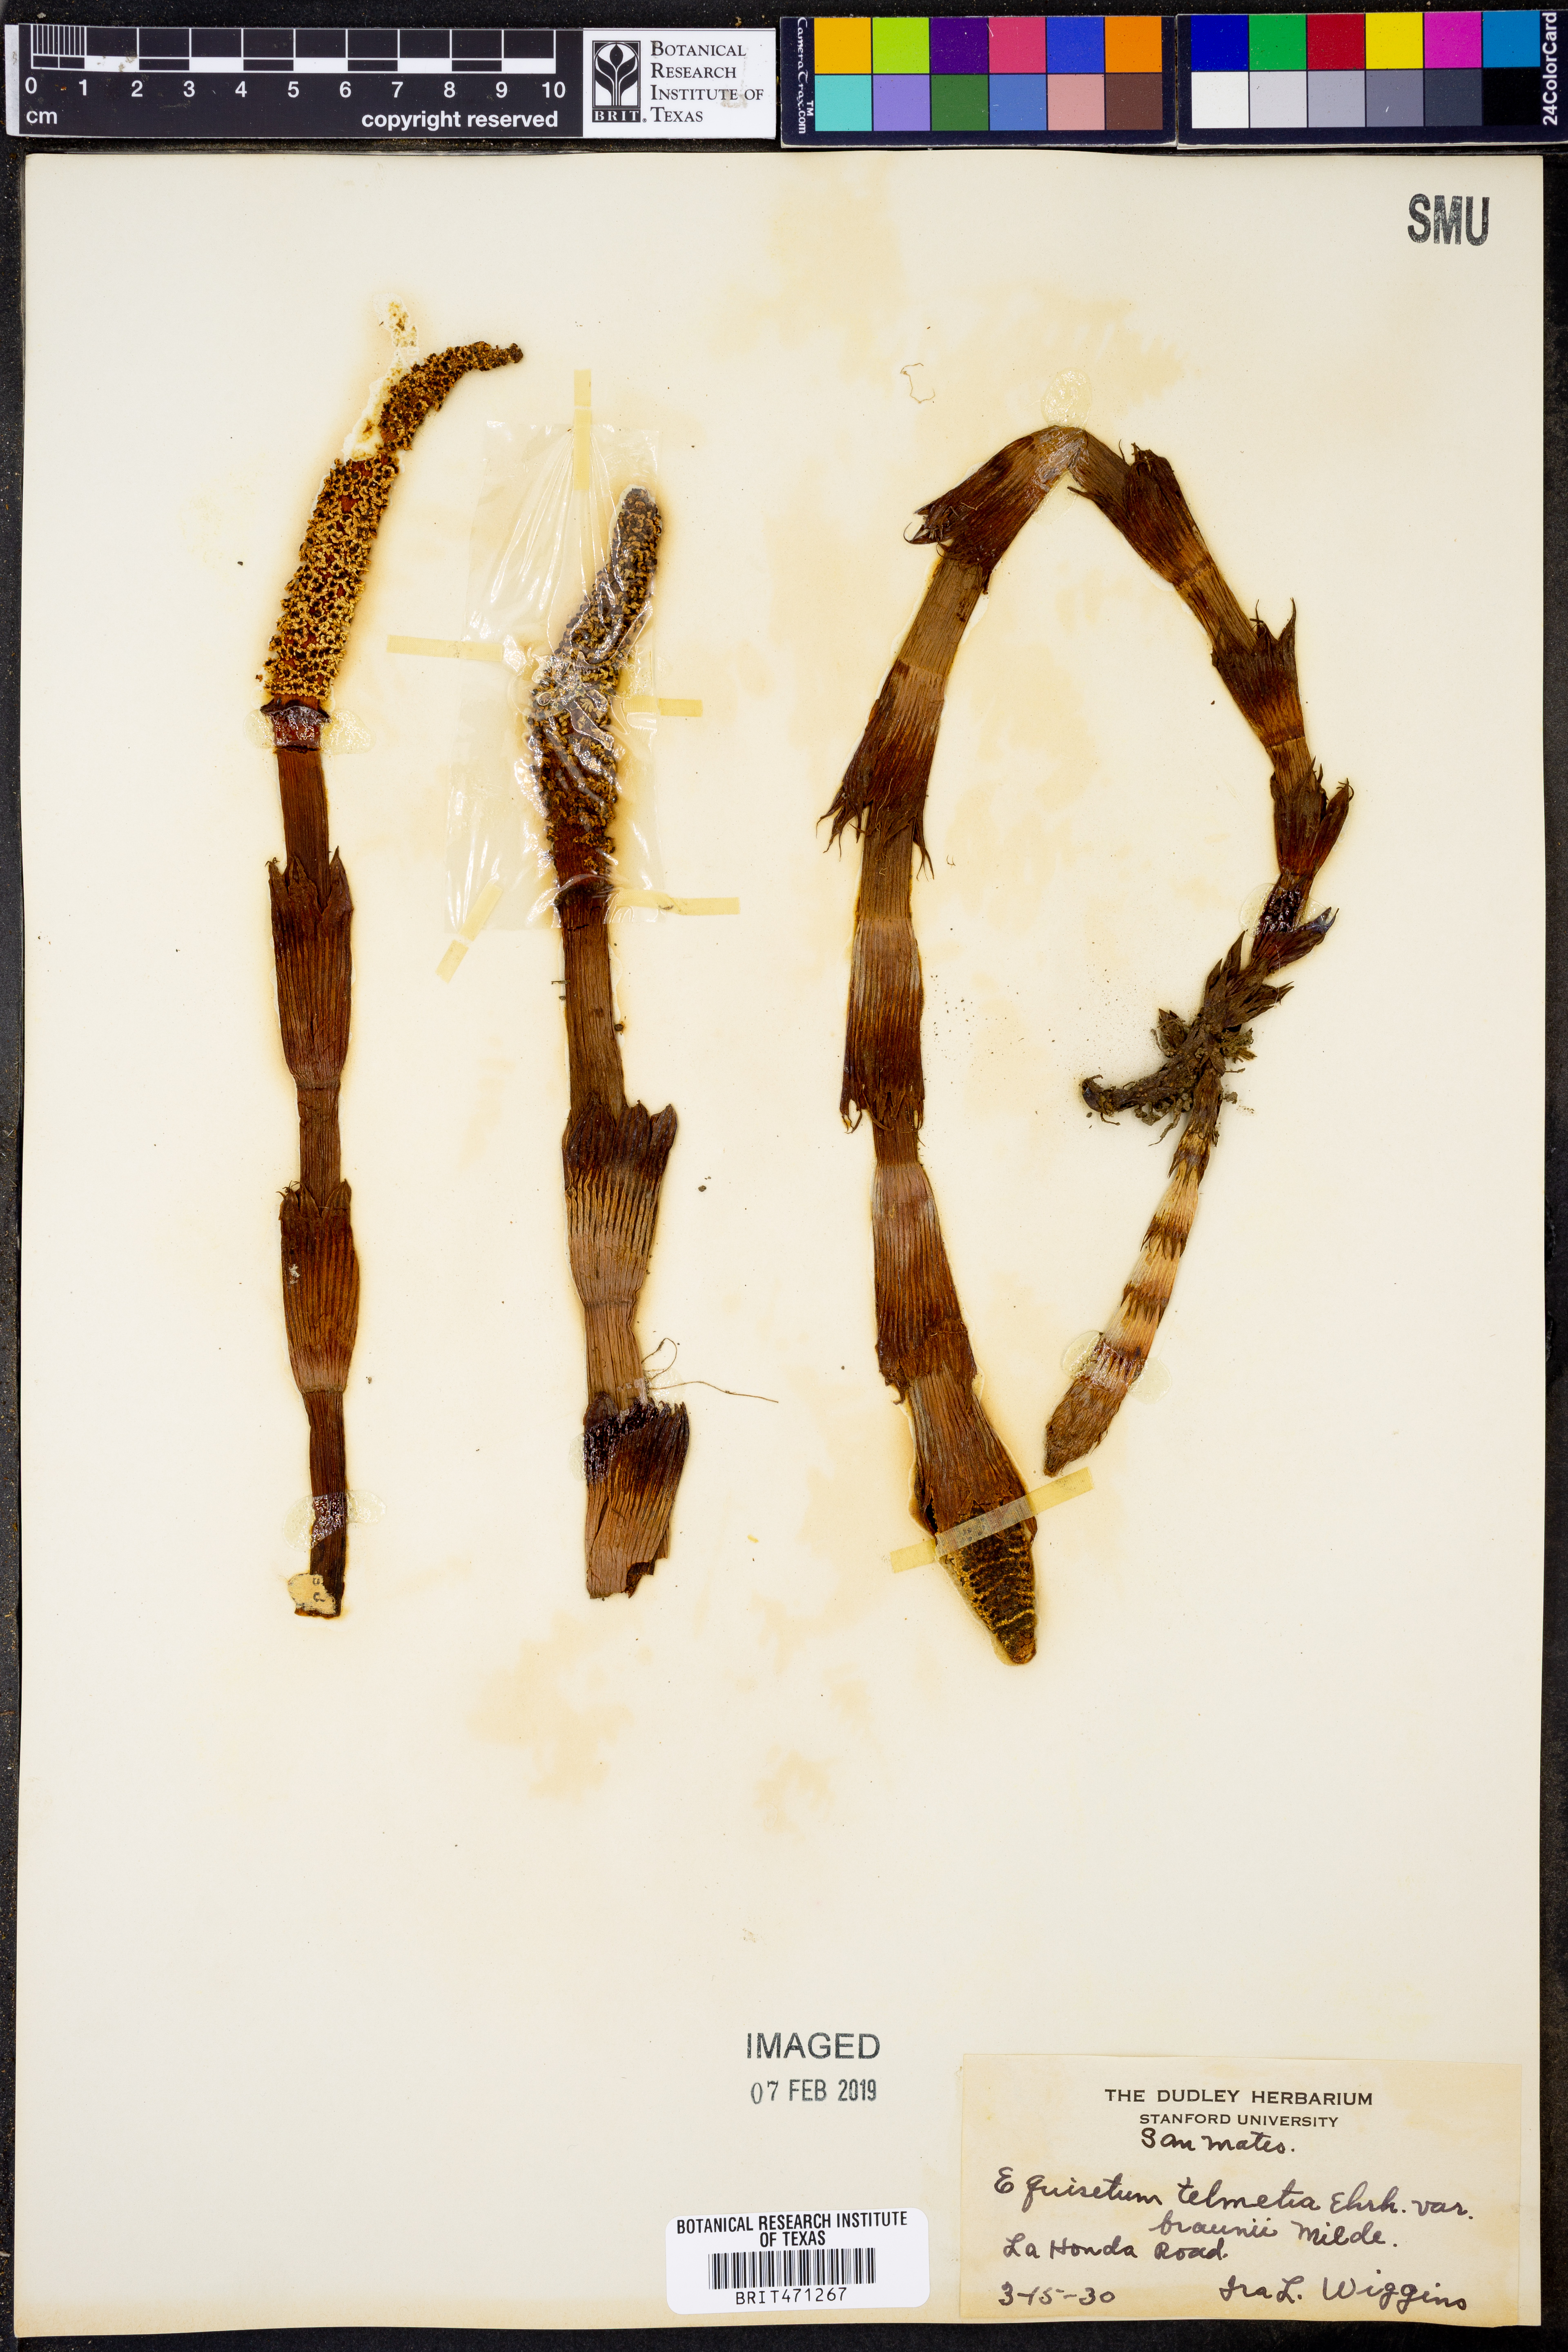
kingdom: Plantae
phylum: Tracheophyta
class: Polypodiopsida
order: Equisetales
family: Equisetaceae
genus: Equisetum
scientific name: Equisetum braunii
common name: Braun's horsetail
